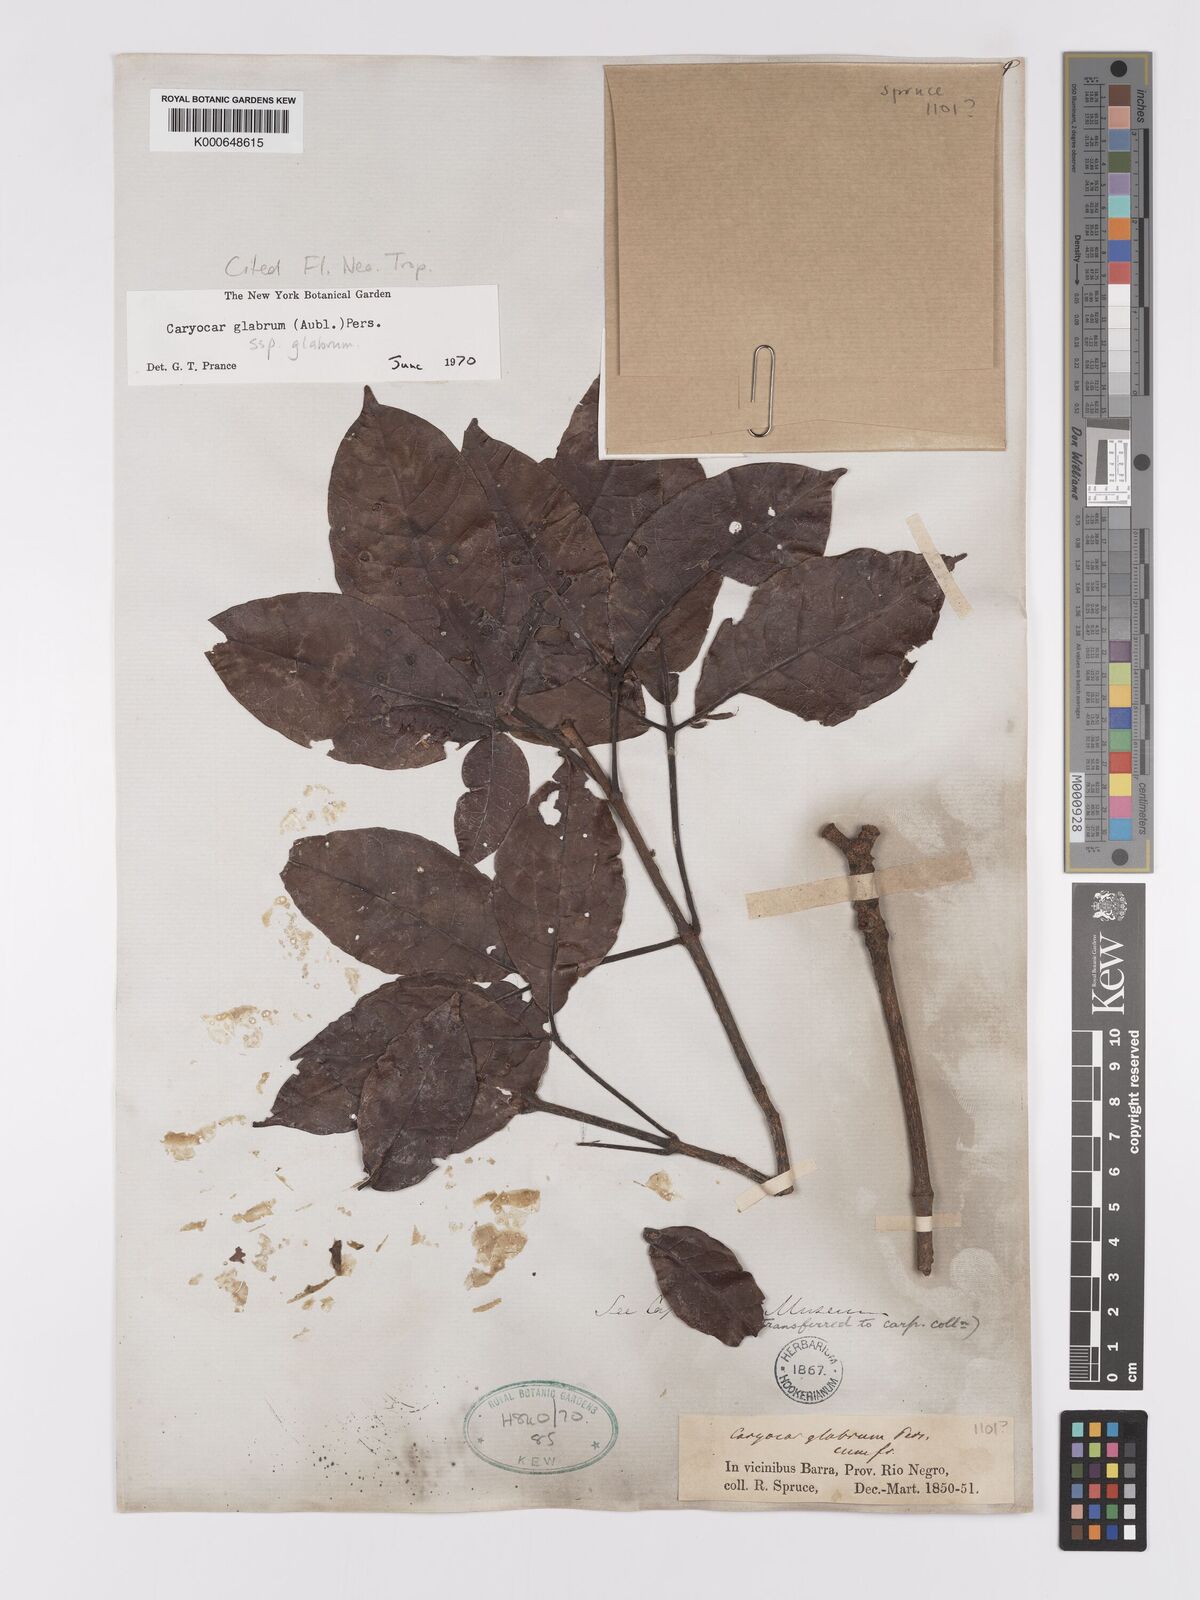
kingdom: Plantae
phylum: Tracheophyta
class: Magnoliopsida
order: Malpighiales
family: Caryocaraceae
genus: Caryocar
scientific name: Caryocar glabrum
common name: Bat's souari
